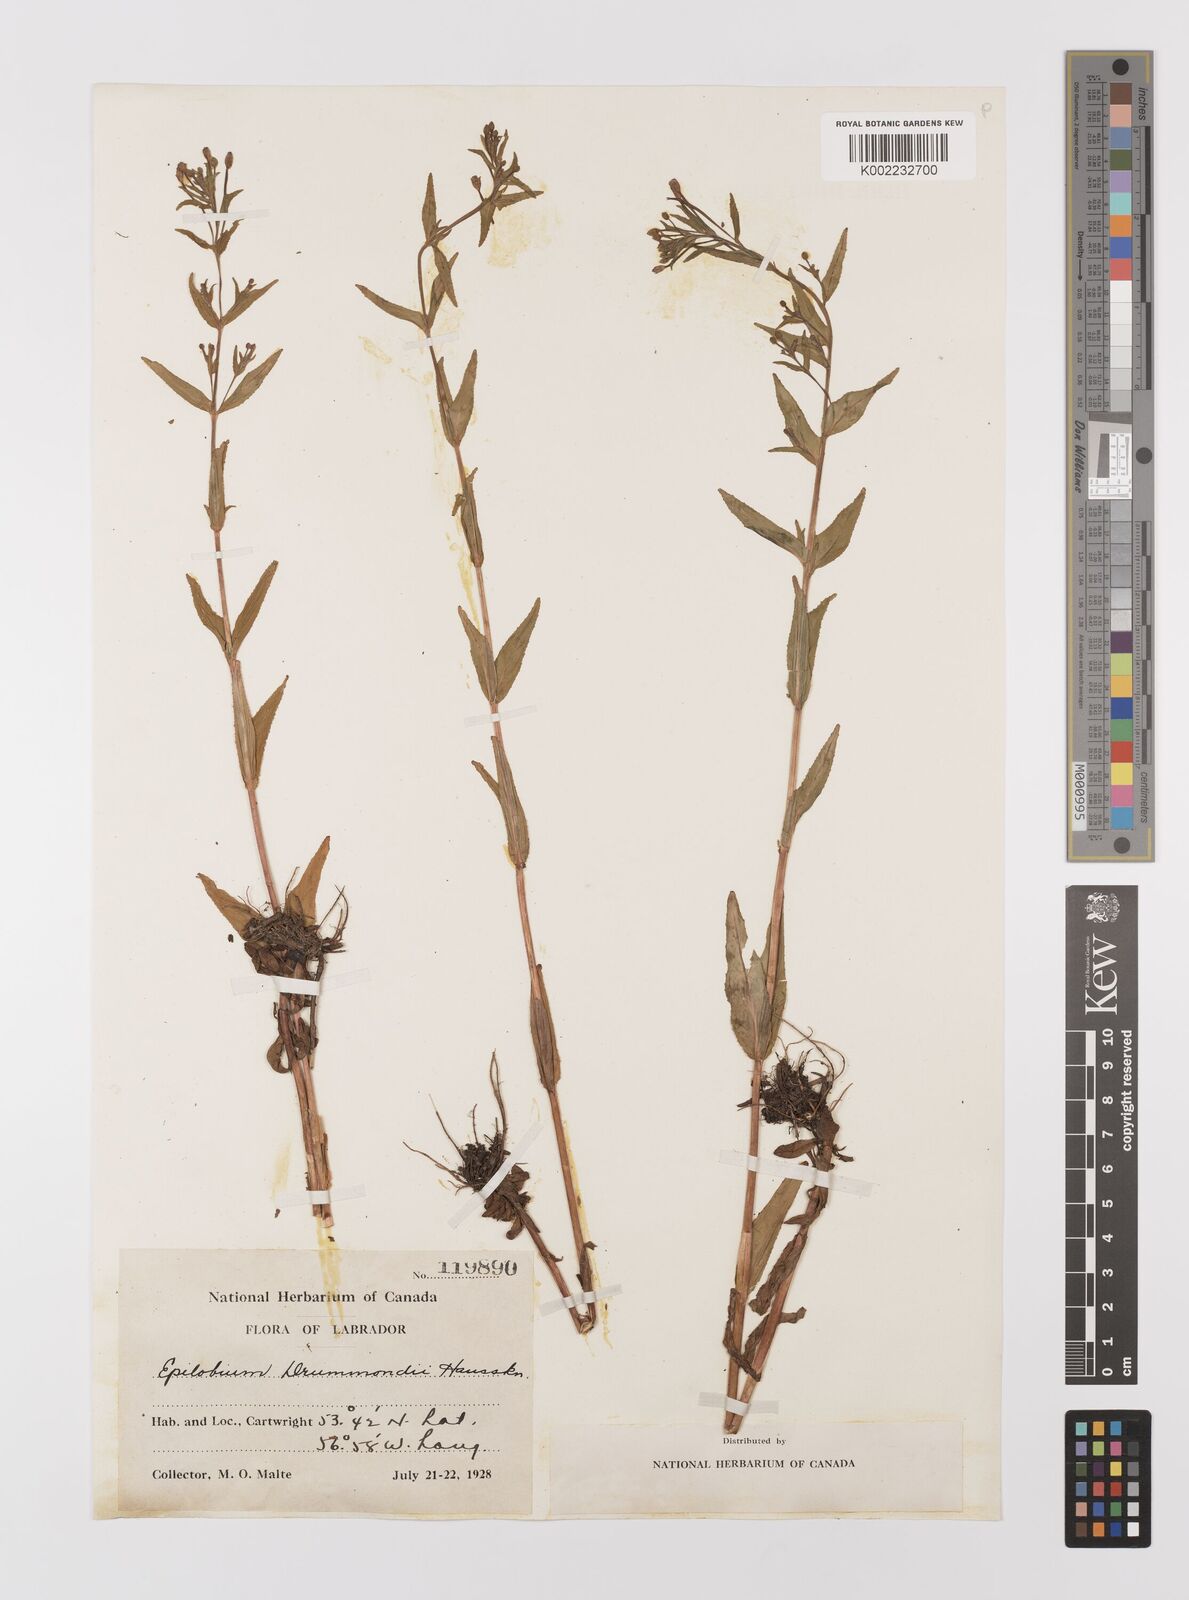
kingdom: Plantae
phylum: Tracheophyta
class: Magnoliopsida
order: Myrtales
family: Onagraceae
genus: Epilobium
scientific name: Epilobium
